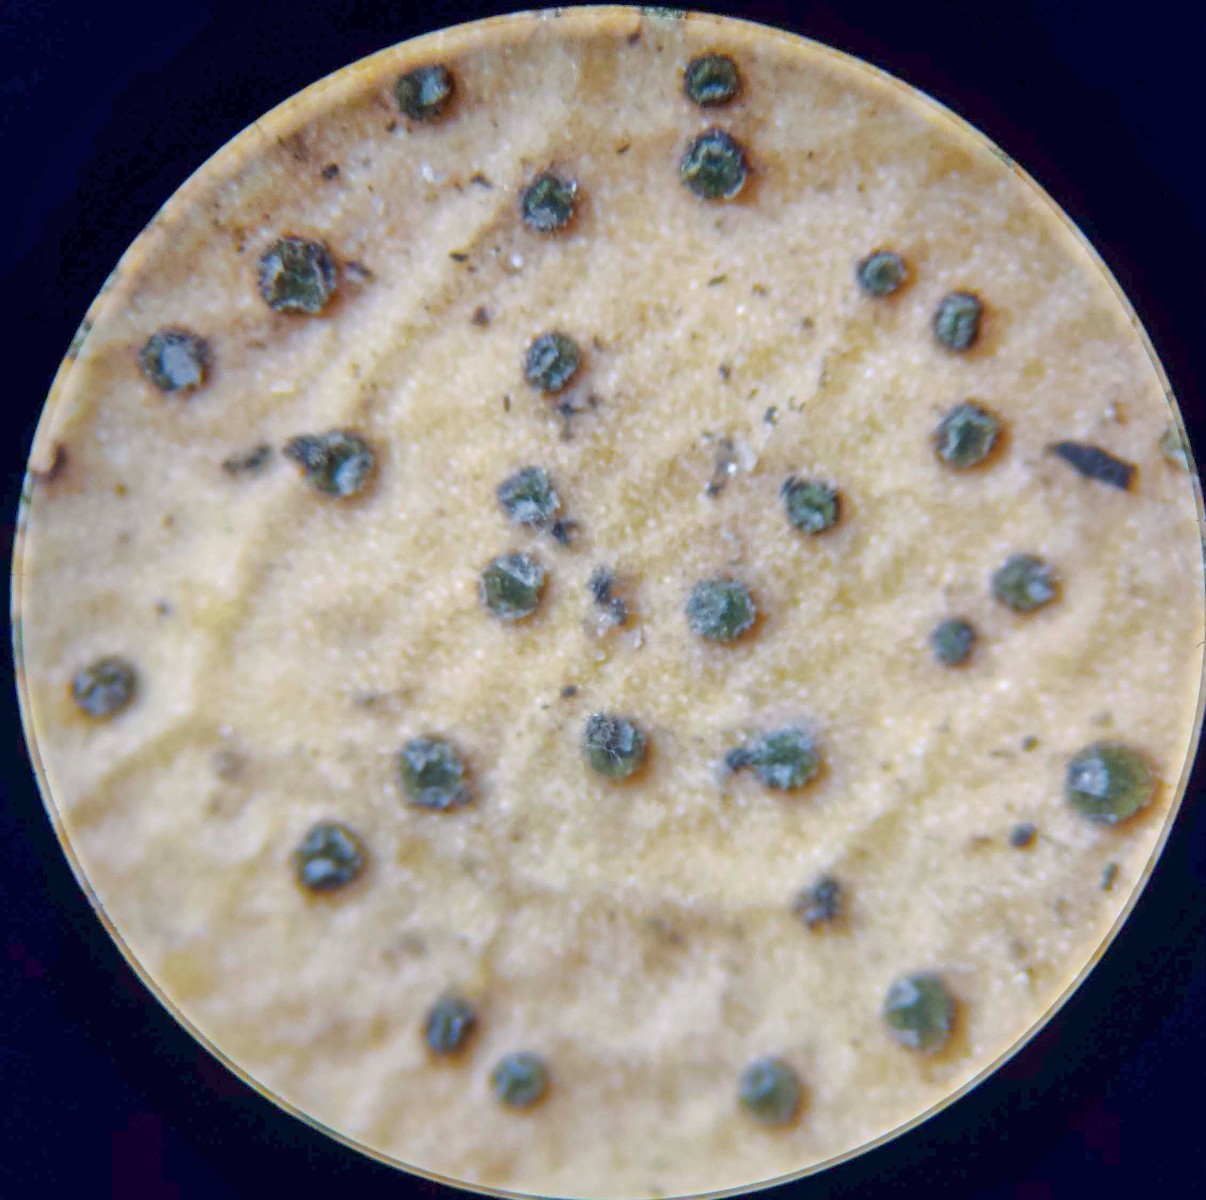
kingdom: Fungi
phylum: Ascomycota
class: Leotiomycetes
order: Helotiales
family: Cenangiaceae
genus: Trochila
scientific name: Trochila craterium
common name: vedbend-lågskive
